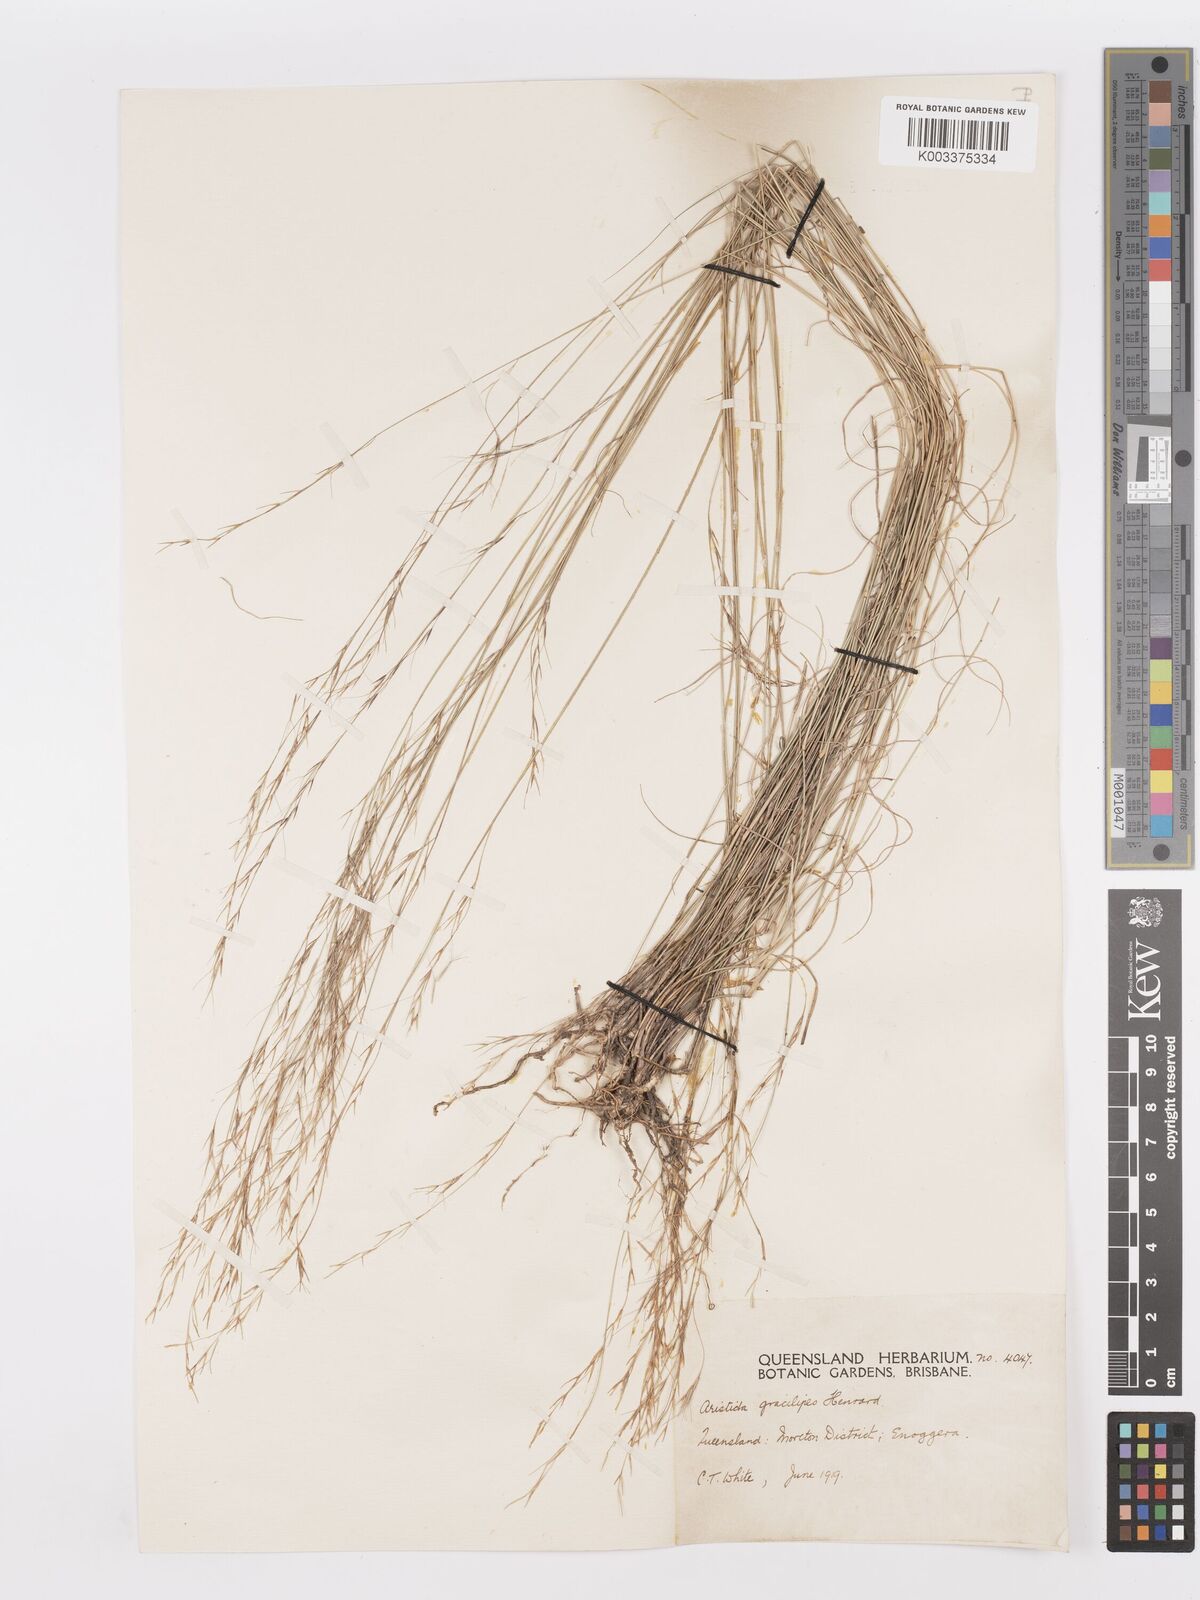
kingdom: Plantae
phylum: Tracheophyta
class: Liliopsida
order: Poales
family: Poaceae
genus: Aristida
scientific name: Aristida gracilipes
